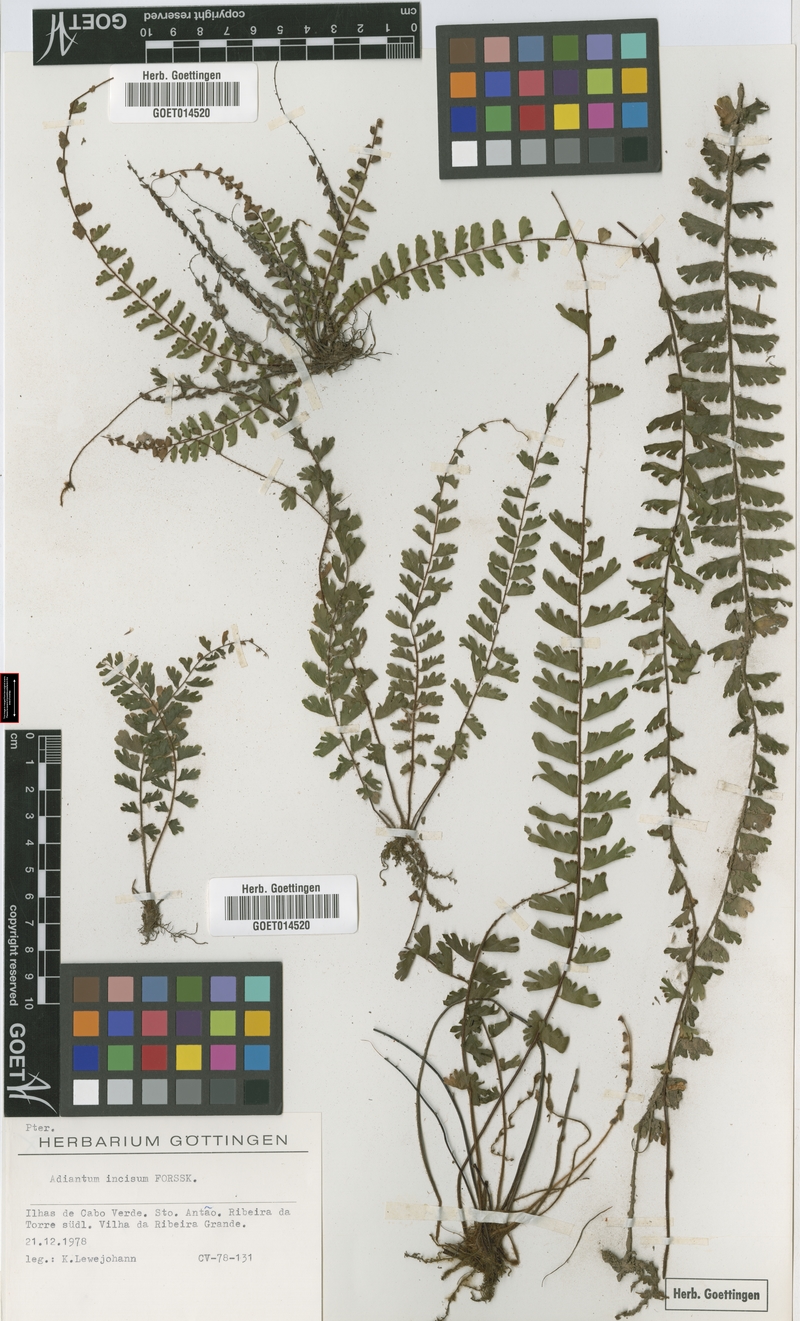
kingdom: Plantae
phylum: Tracheophyta
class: Polypodiopsida
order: Polypodiales
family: Pteridaceae
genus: Adiantum
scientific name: Adiantum incisum
